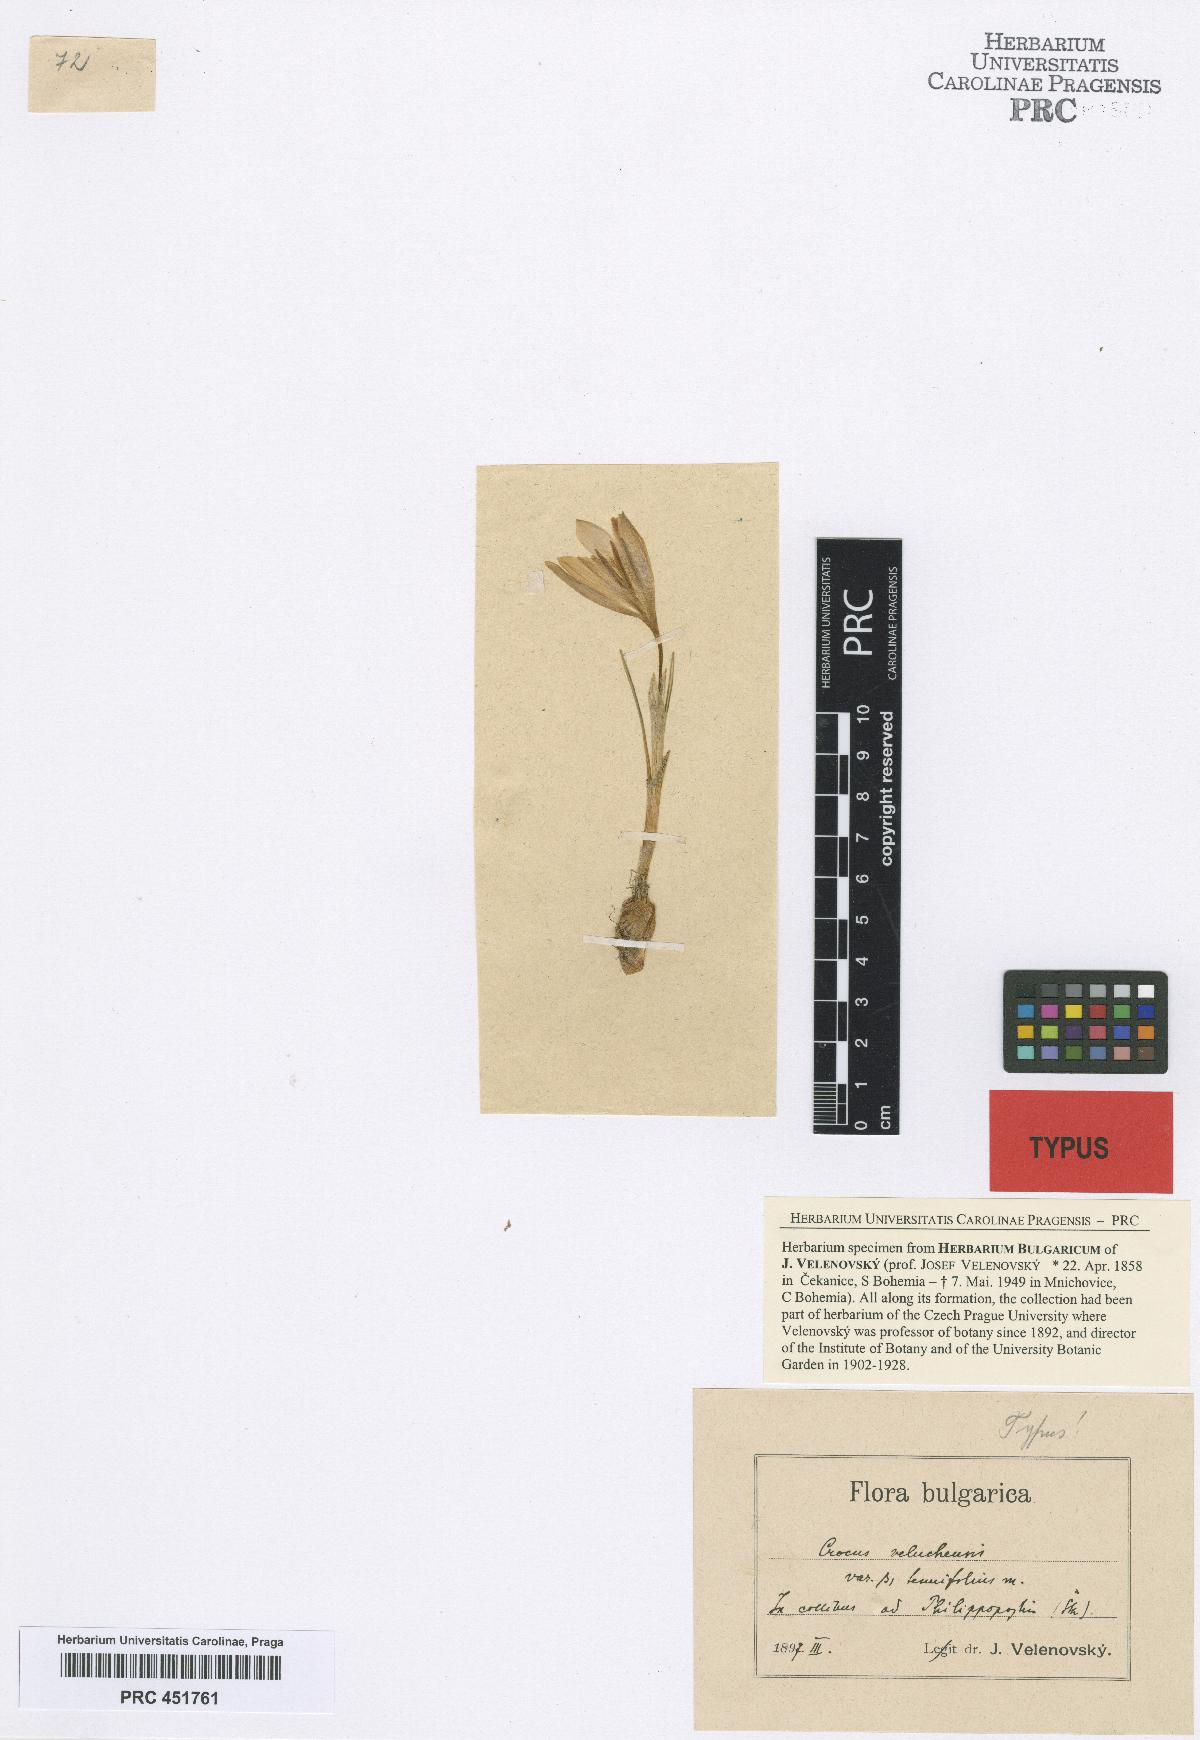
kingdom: Plantae
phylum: Tracheophyta
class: Liliopsida
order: Asparagales
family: Iridaceae
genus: Crocus
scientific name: Crocus veluchensis
